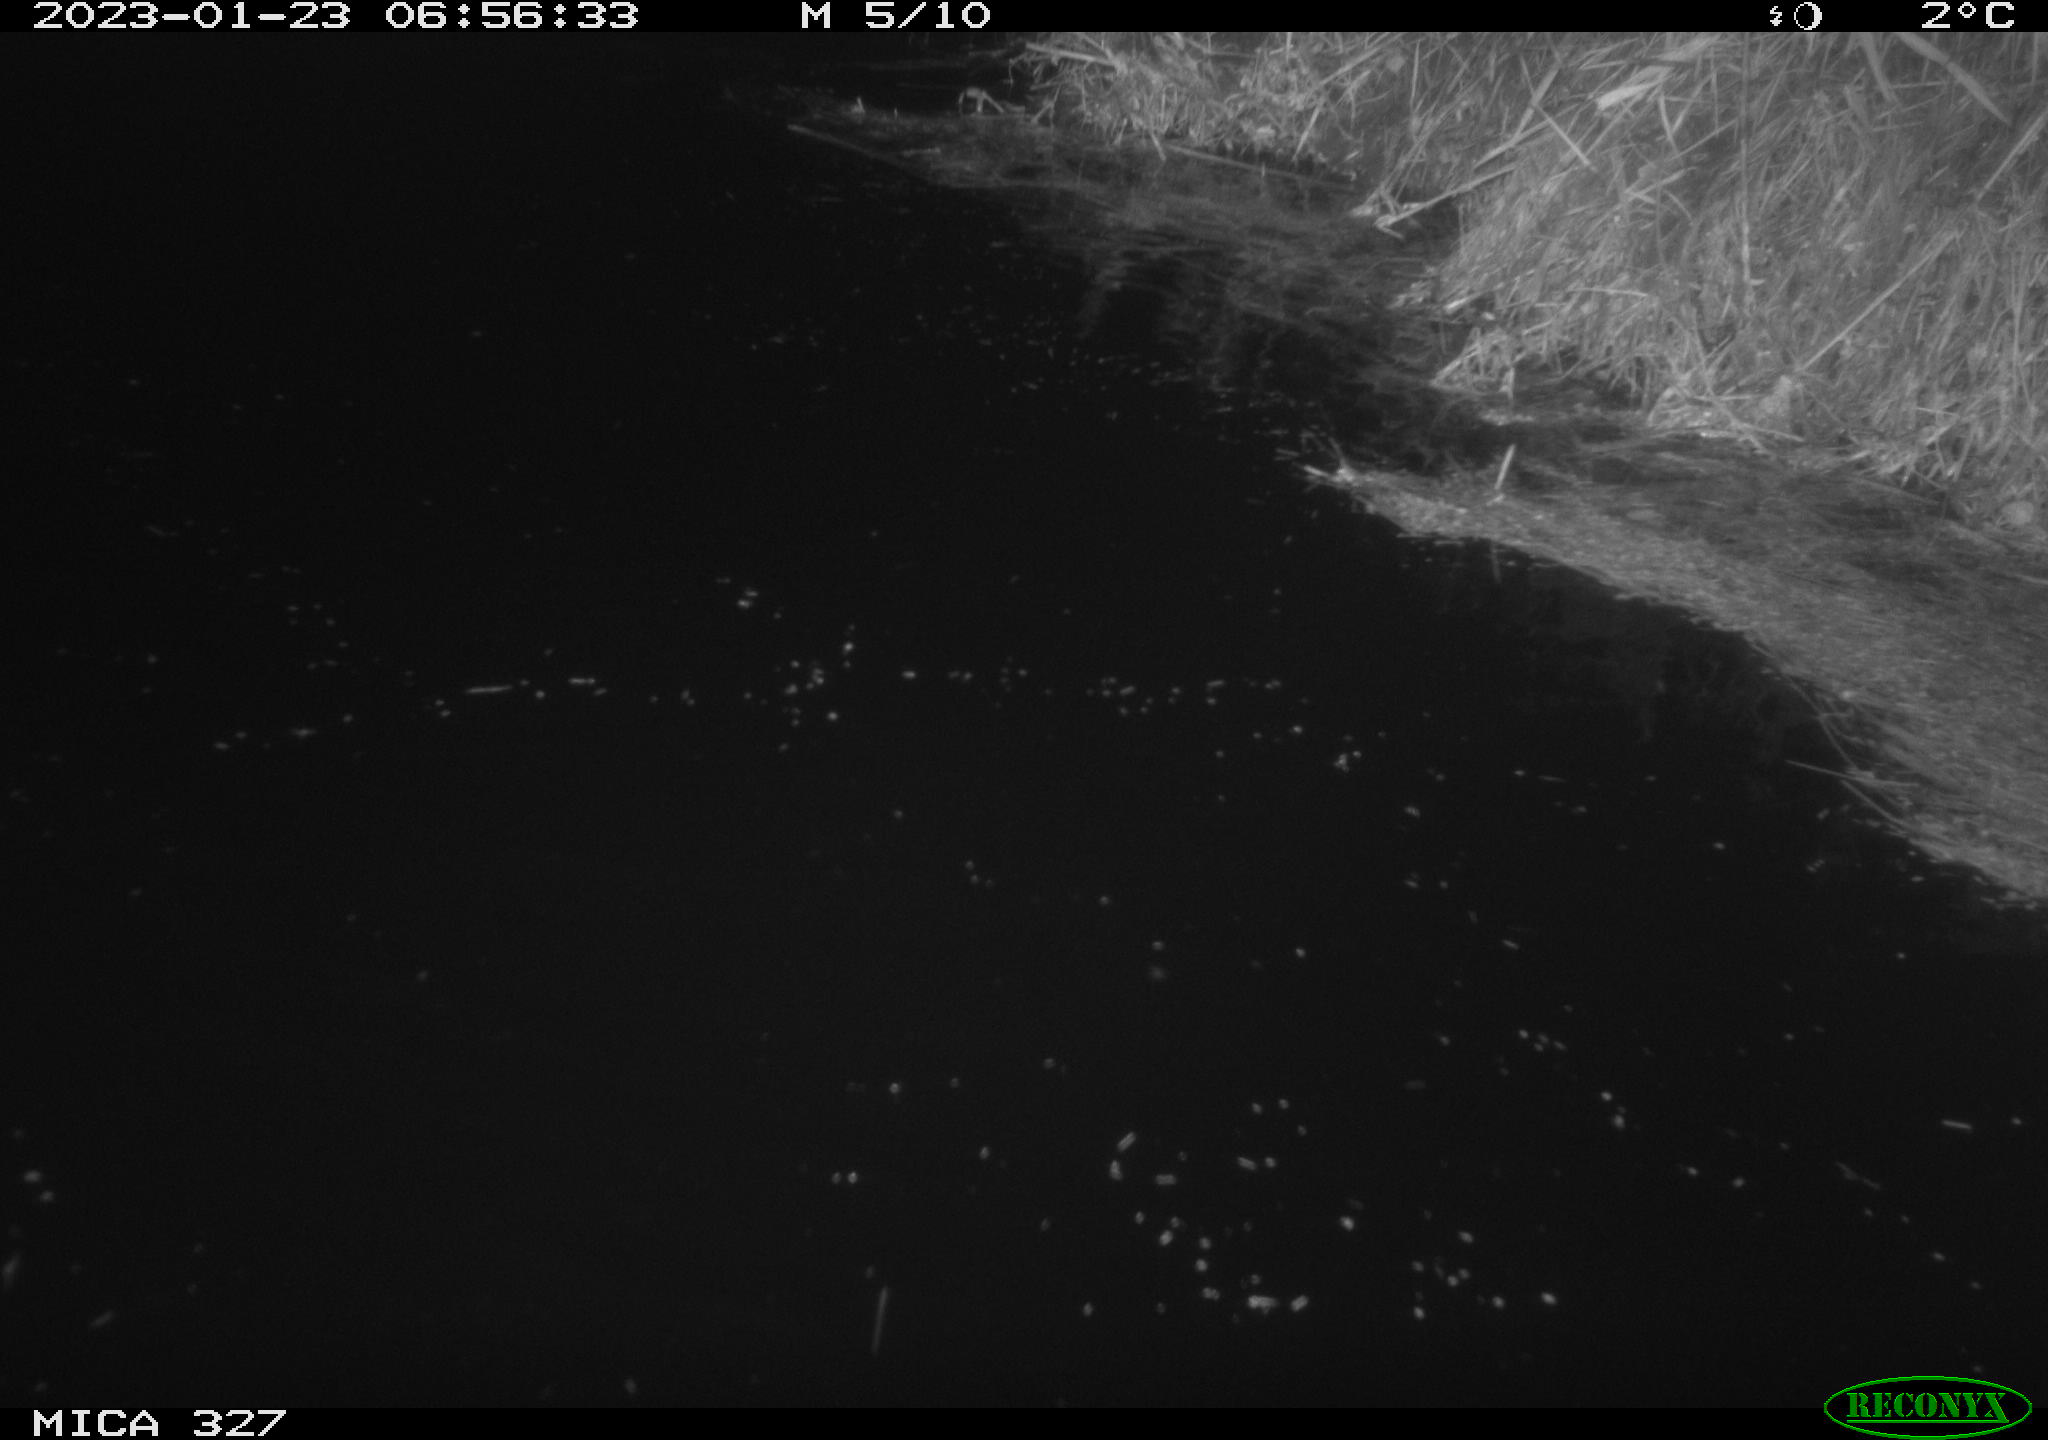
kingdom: Animalia
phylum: Chordata
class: Mammalia
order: Rodentia
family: Cricetidae
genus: Ondatra
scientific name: Ondatra zibethicus
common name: Muskrat
